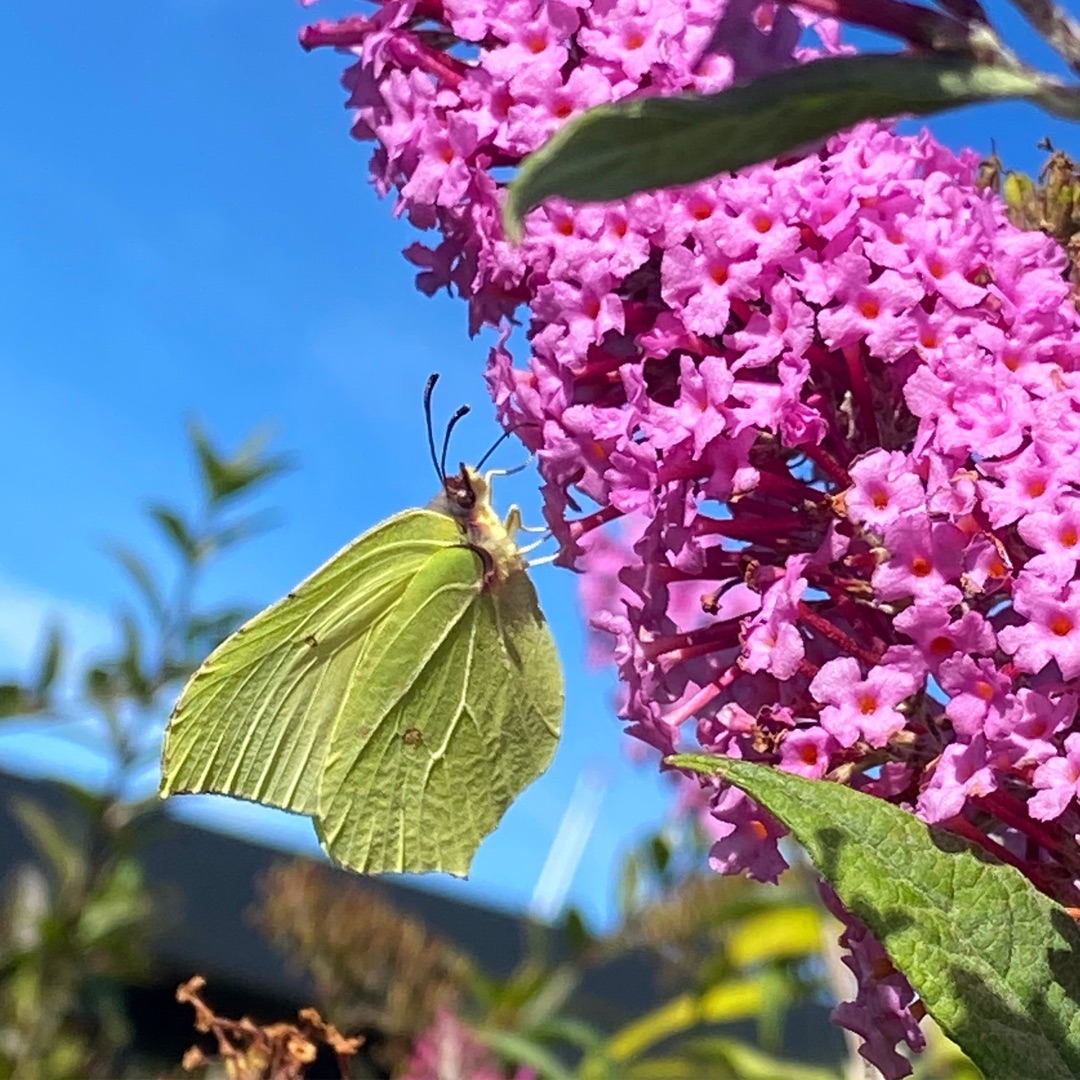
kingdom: Animalia
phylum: Arthropoda
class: Insecta
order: Lepidoptera
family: Pieridae
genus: Gonepteryx
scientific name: Gonepteryx rhamni
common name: Citronsommerfugl
